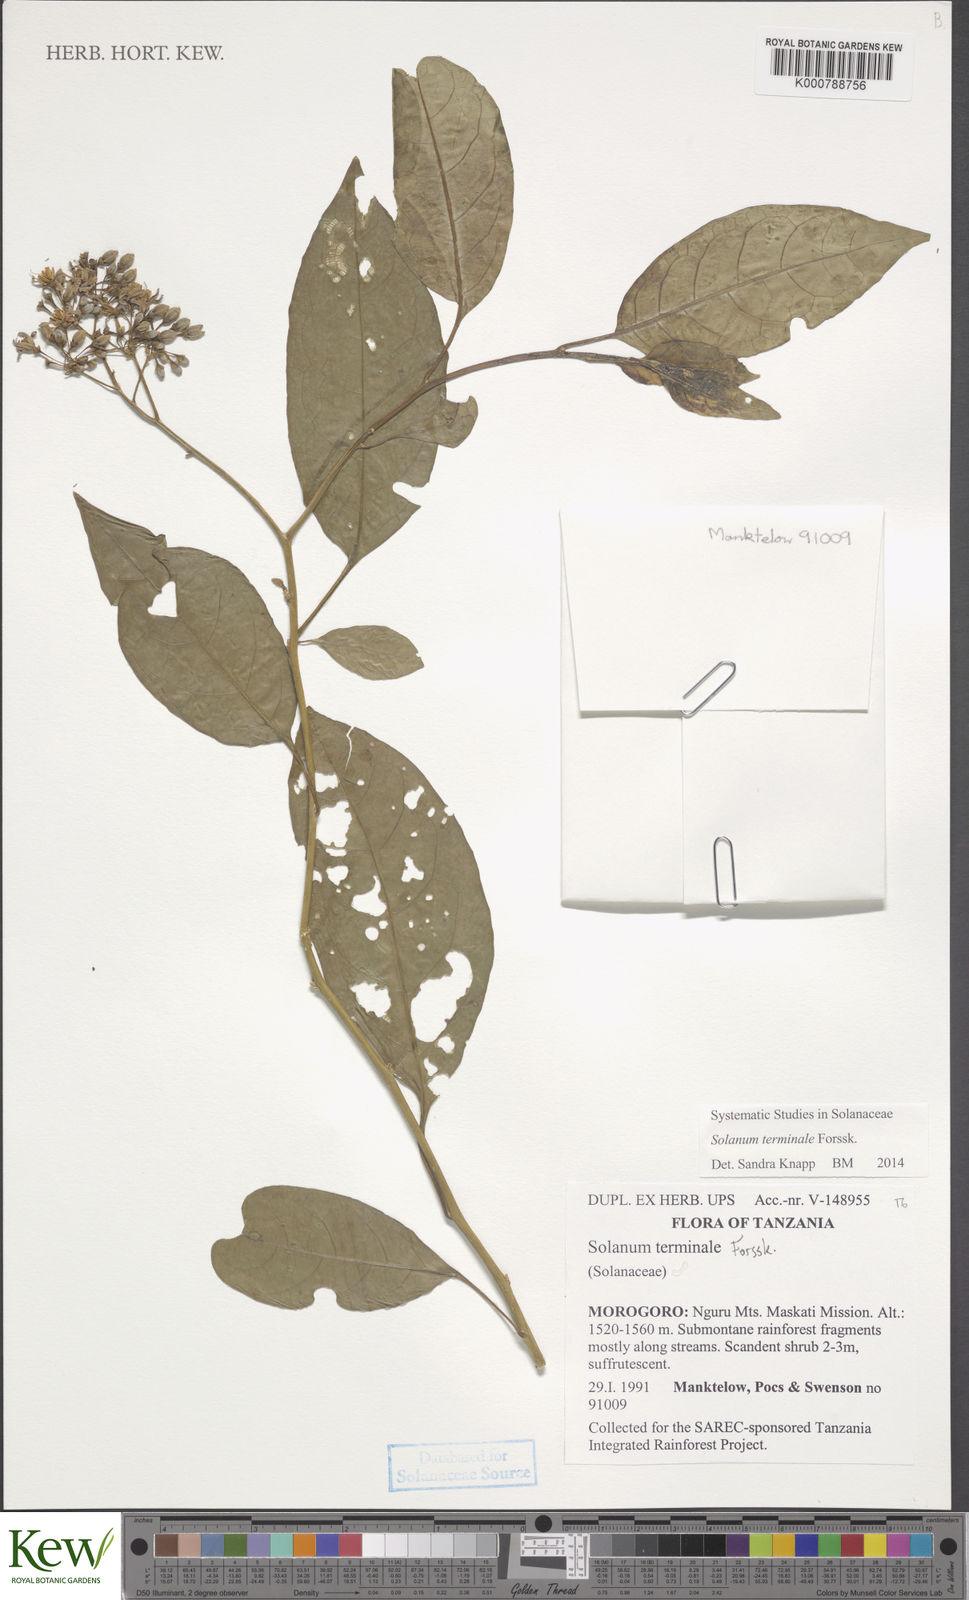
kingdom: Plantae
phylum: Tracheophyta
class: Magnoliopsida
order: Solanales
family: Solanaceae
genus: Solanum
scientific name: Solanum terminale
